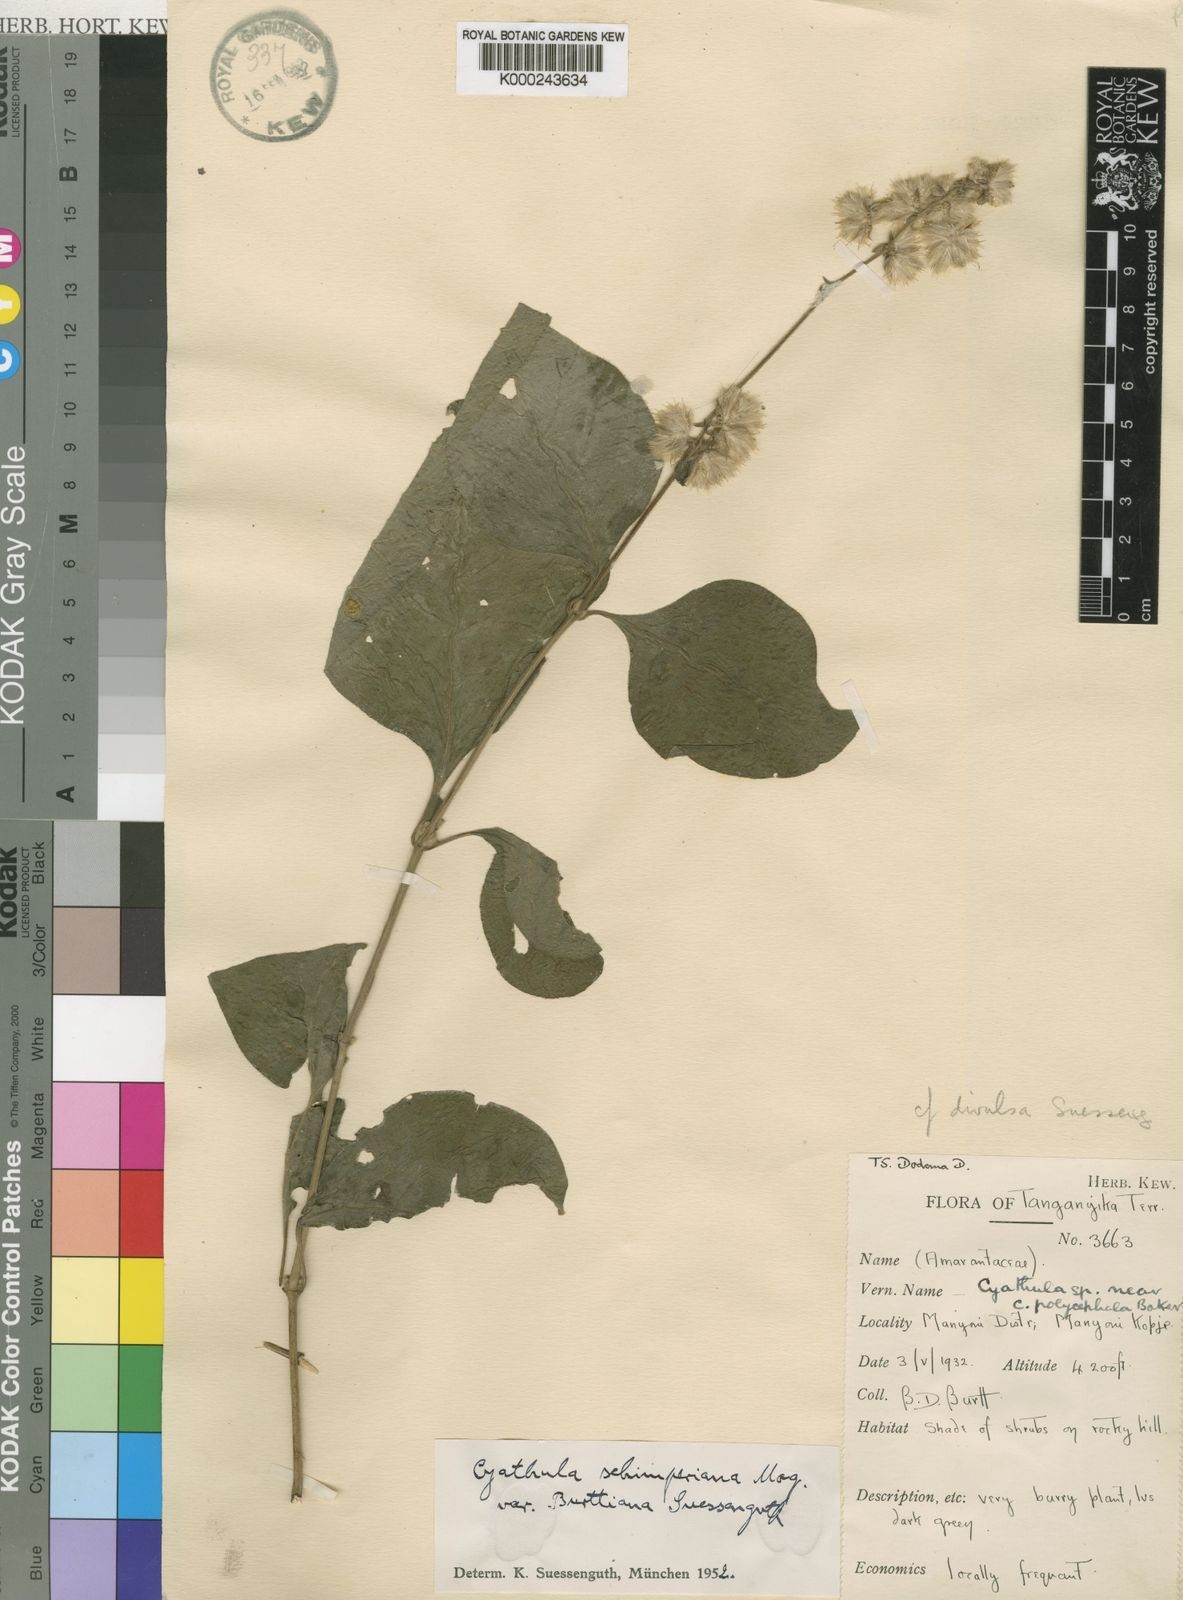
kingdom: Plantae
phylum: Tracheophyta
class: Magnoliopsida
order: Caryophyllales
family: Amaranthaceae
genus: Cyathula
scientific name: Cyathula divulsa
